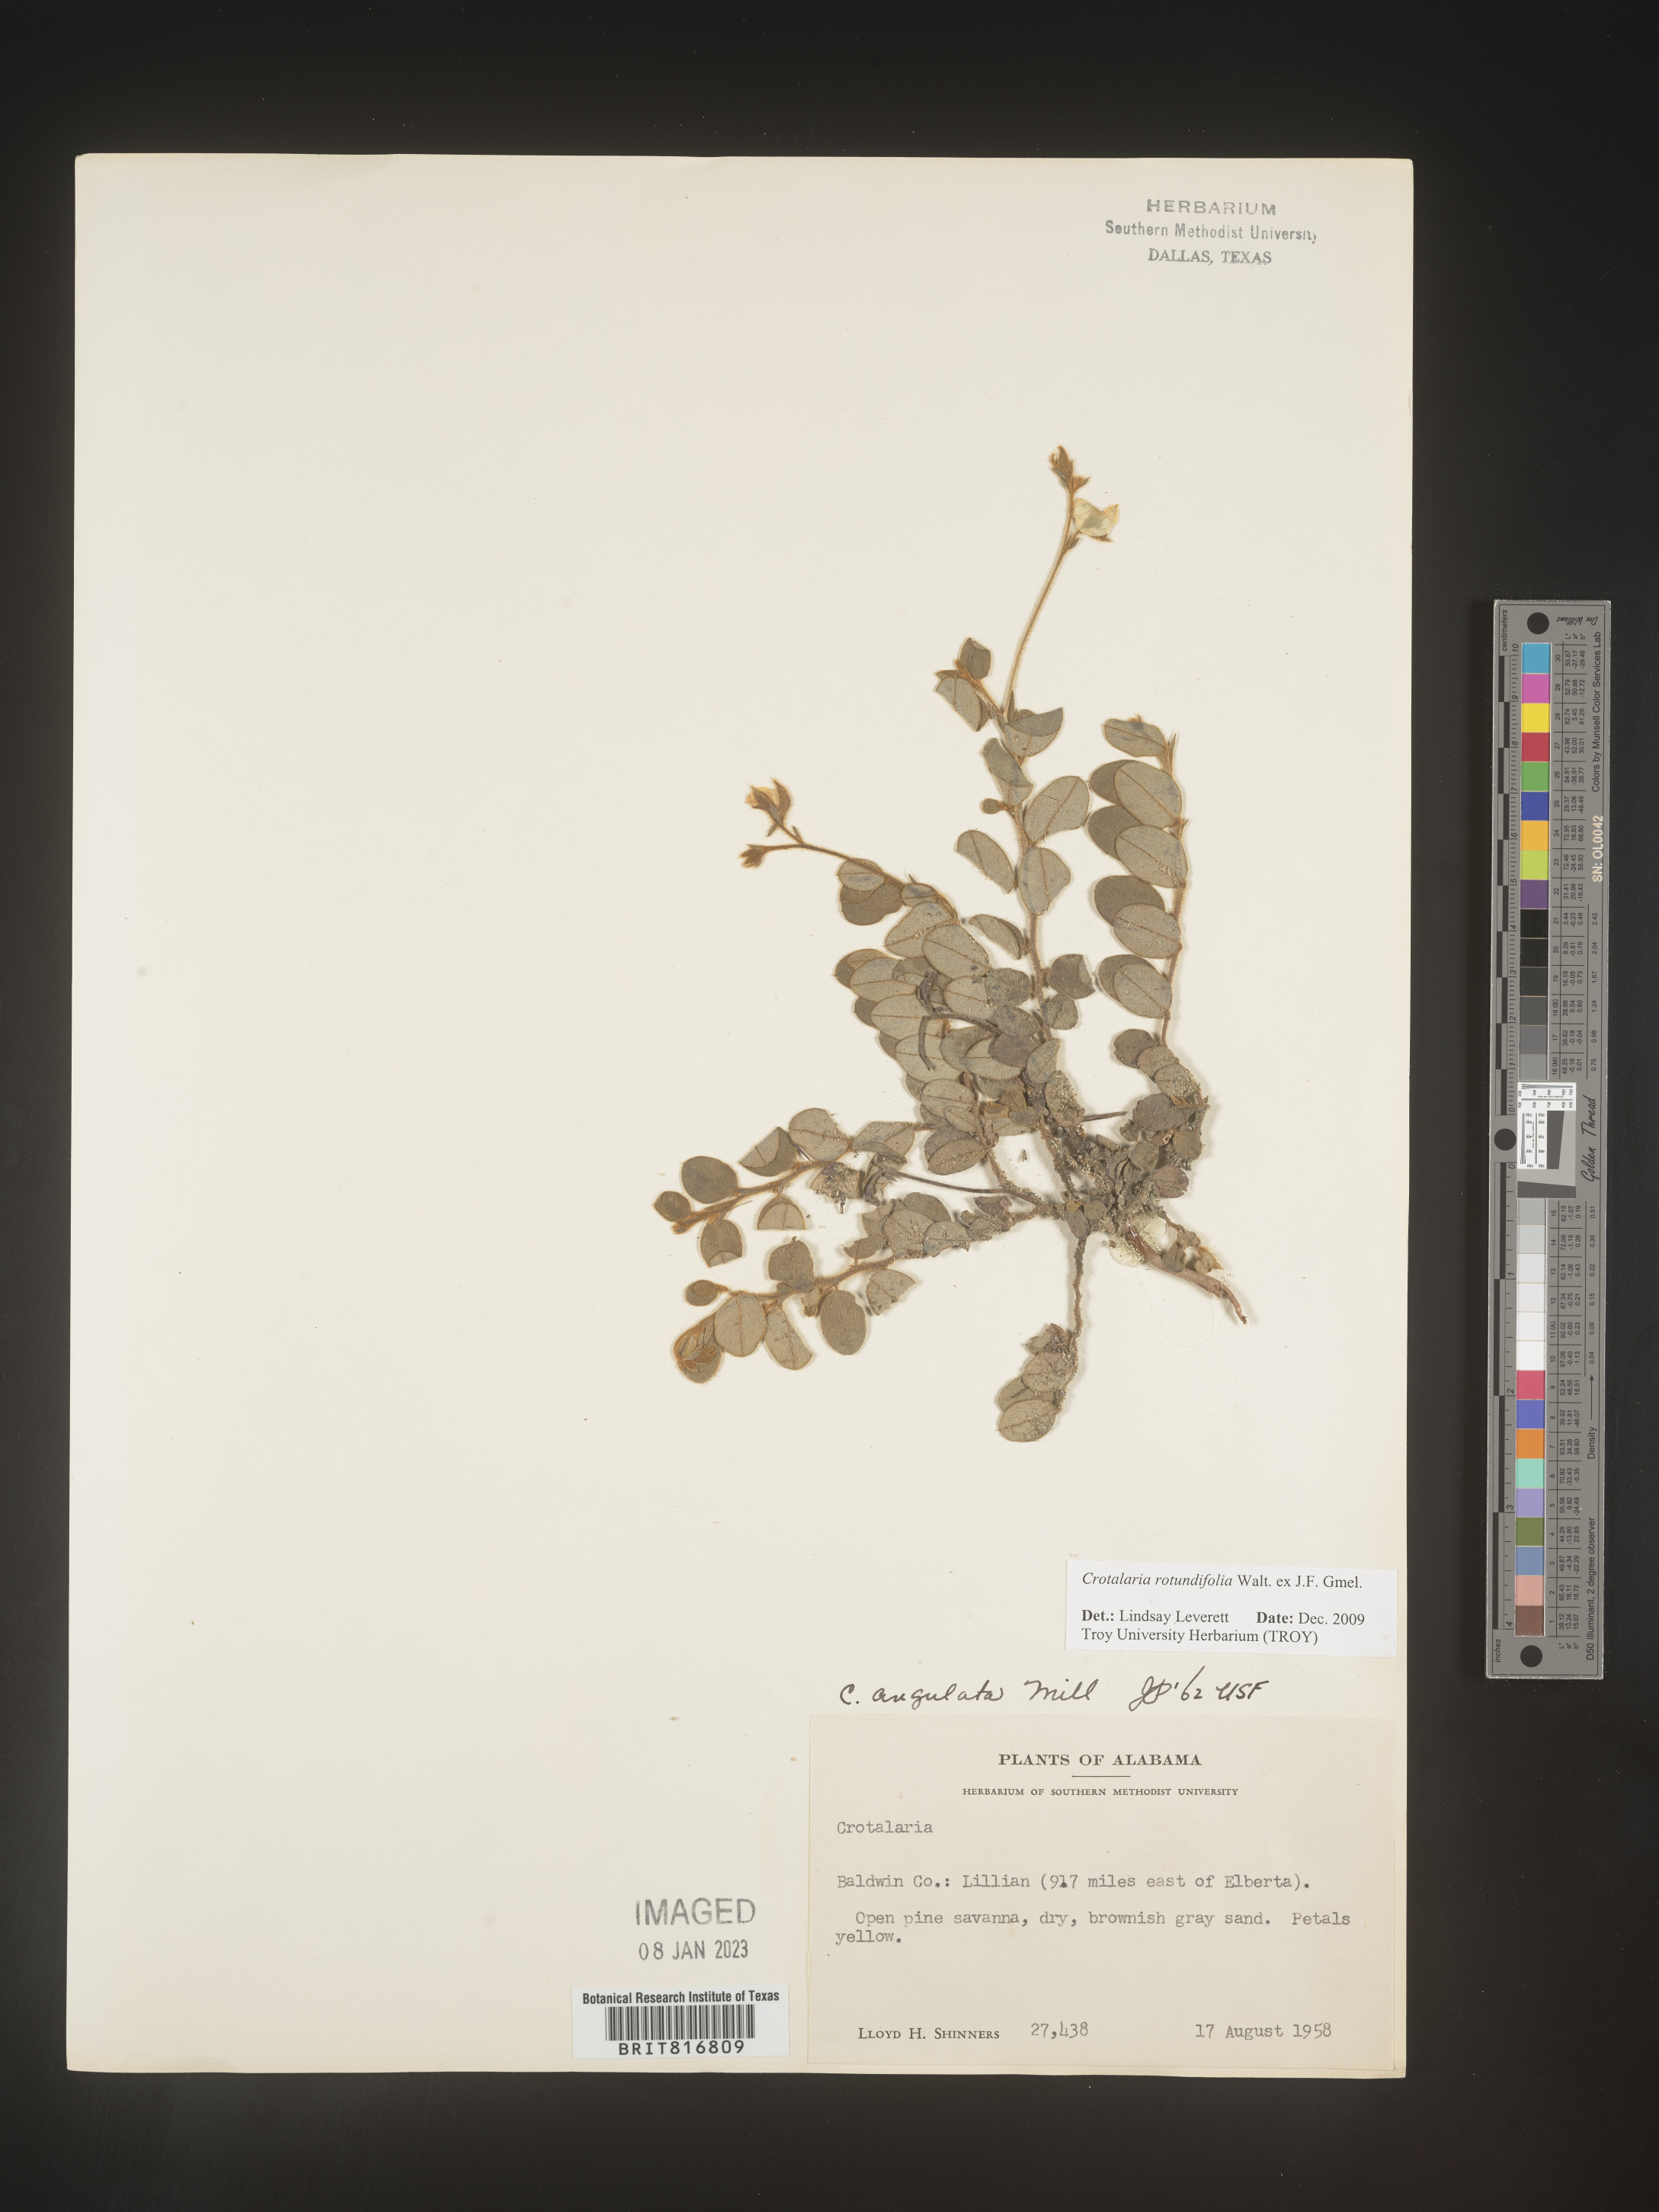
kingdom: Plantae
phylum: Tracheophyta
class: Magnoliopsida
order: Fabales
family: Fabaceae
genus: Crotalaria
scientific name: Crotalaria rotundifolia
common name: Prostrate rattlebox
